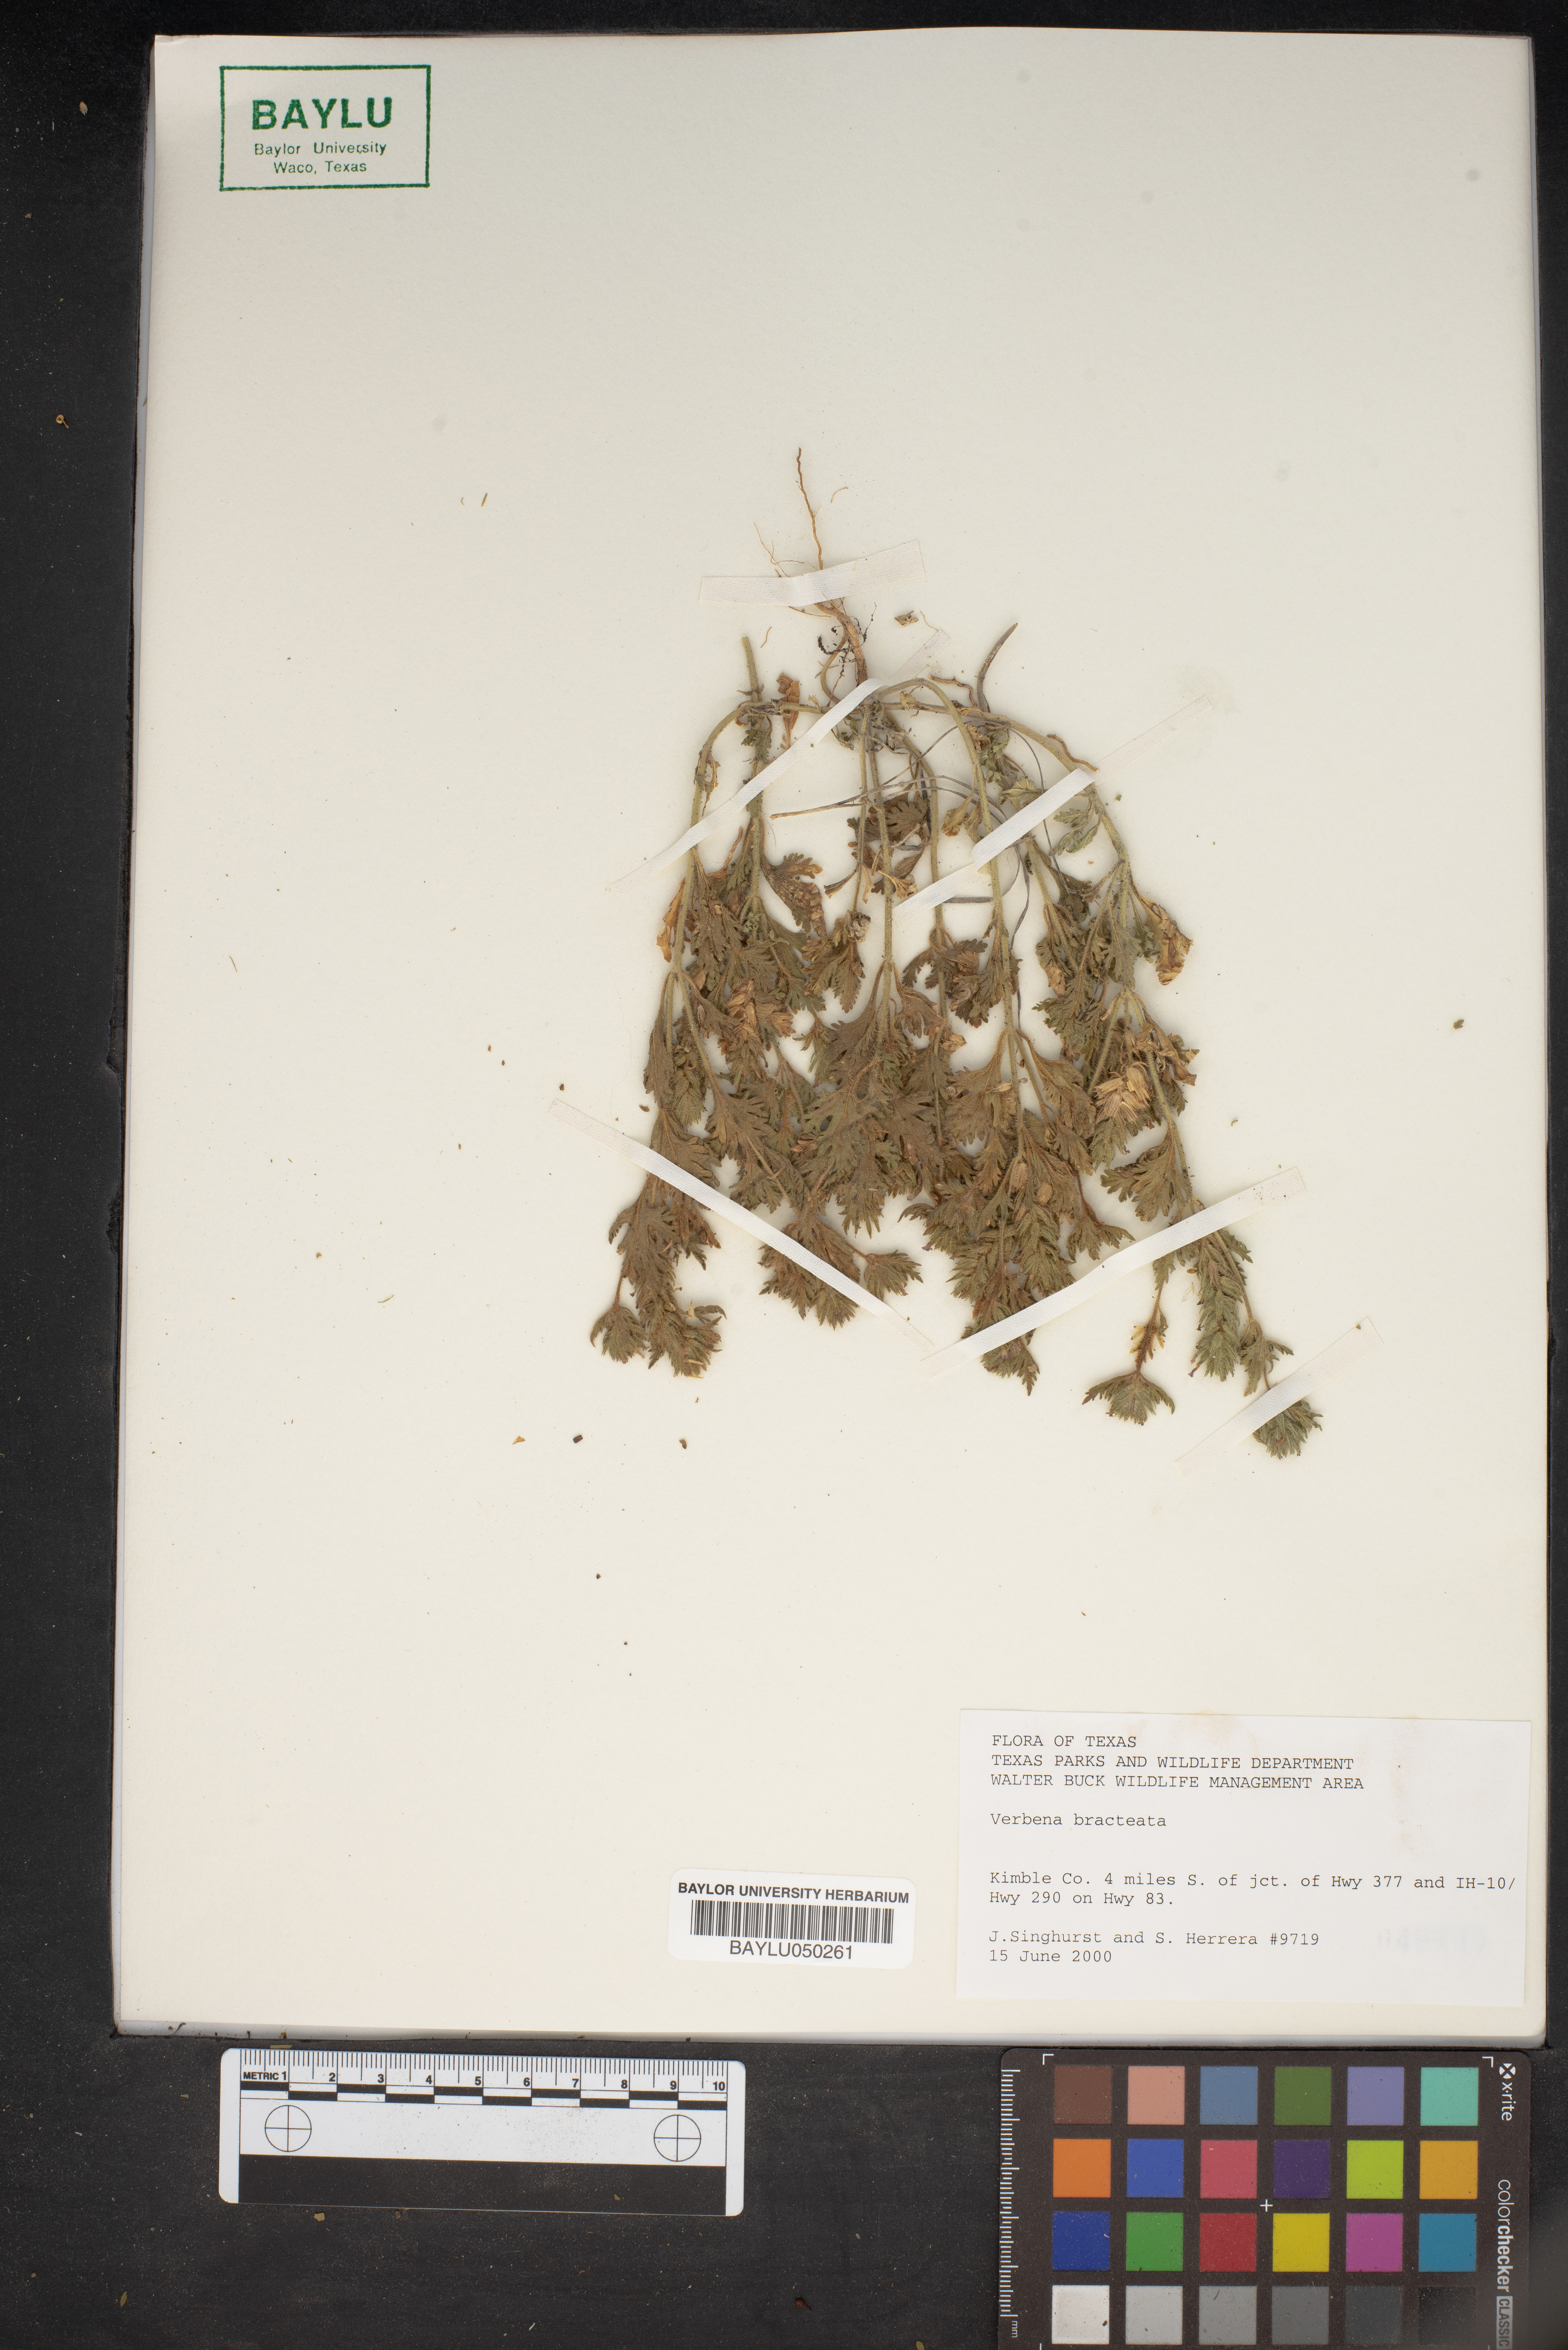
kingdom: Plantae
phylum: Tracheophyta
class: Magnoliopsida
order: Lamiales
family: Verbenaceae
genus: Verbena
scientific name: Verbena bracteata
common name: Bracted vervain
